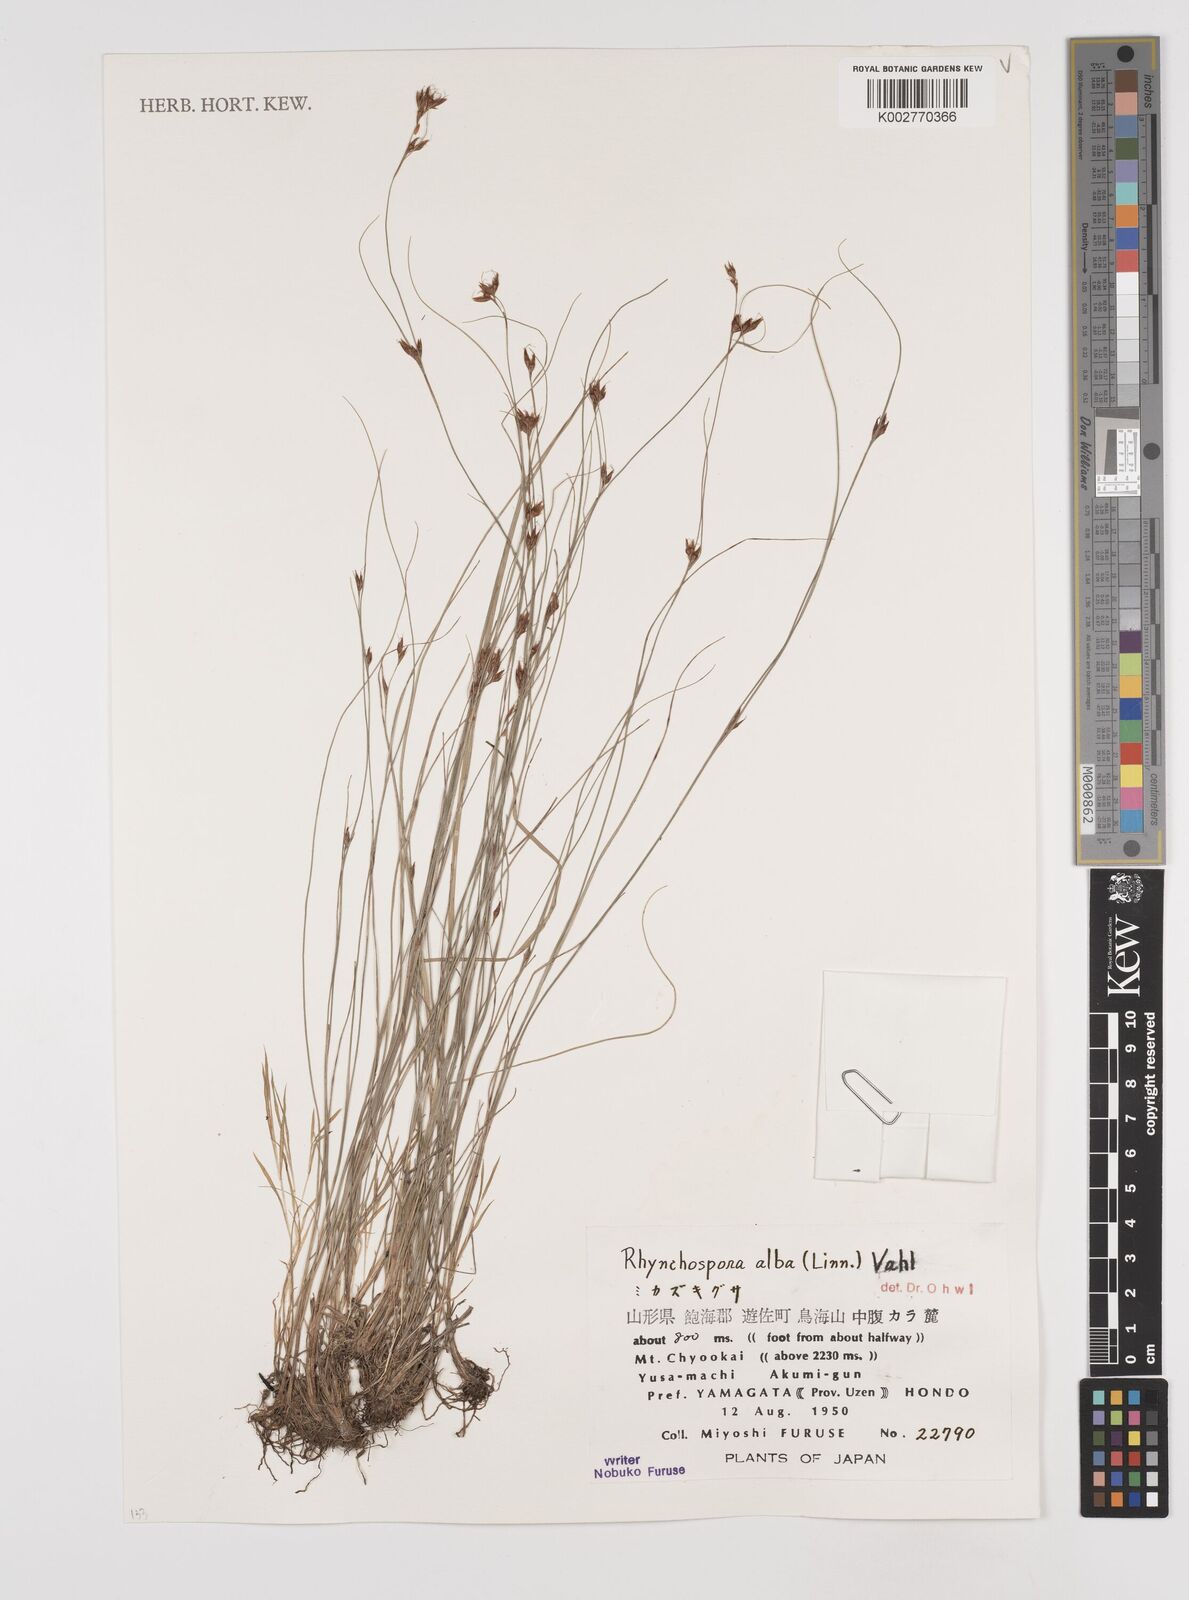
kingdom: Plantae
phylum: Tracheophyta
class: Liliopsida
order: Poales
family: Cyperaceae
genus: Rhynchospora
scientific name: Rhynchospora alba
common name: White beak-sedge
